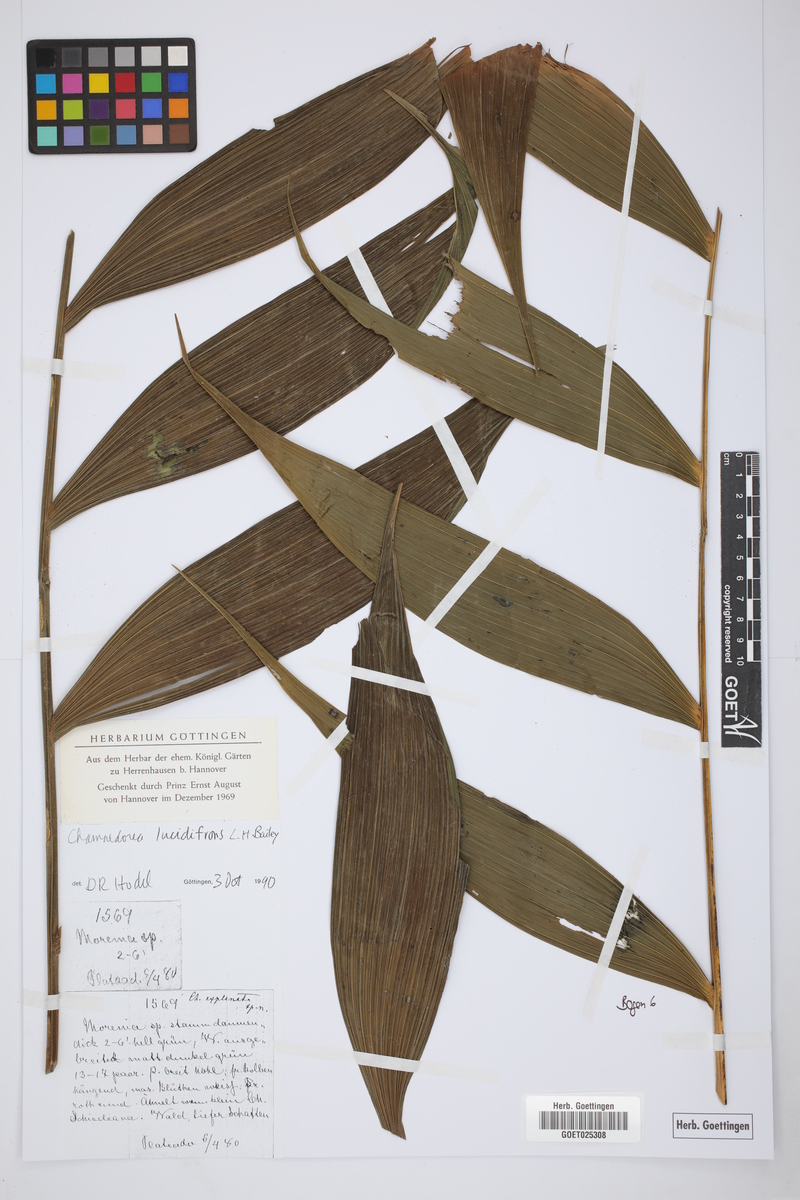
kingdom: Plantae
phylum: Tracheophyta
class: Liliopsida
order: Arecales
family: Arecaceae
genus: Chamaedorea
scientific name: Chamaedorea lucidifrons
